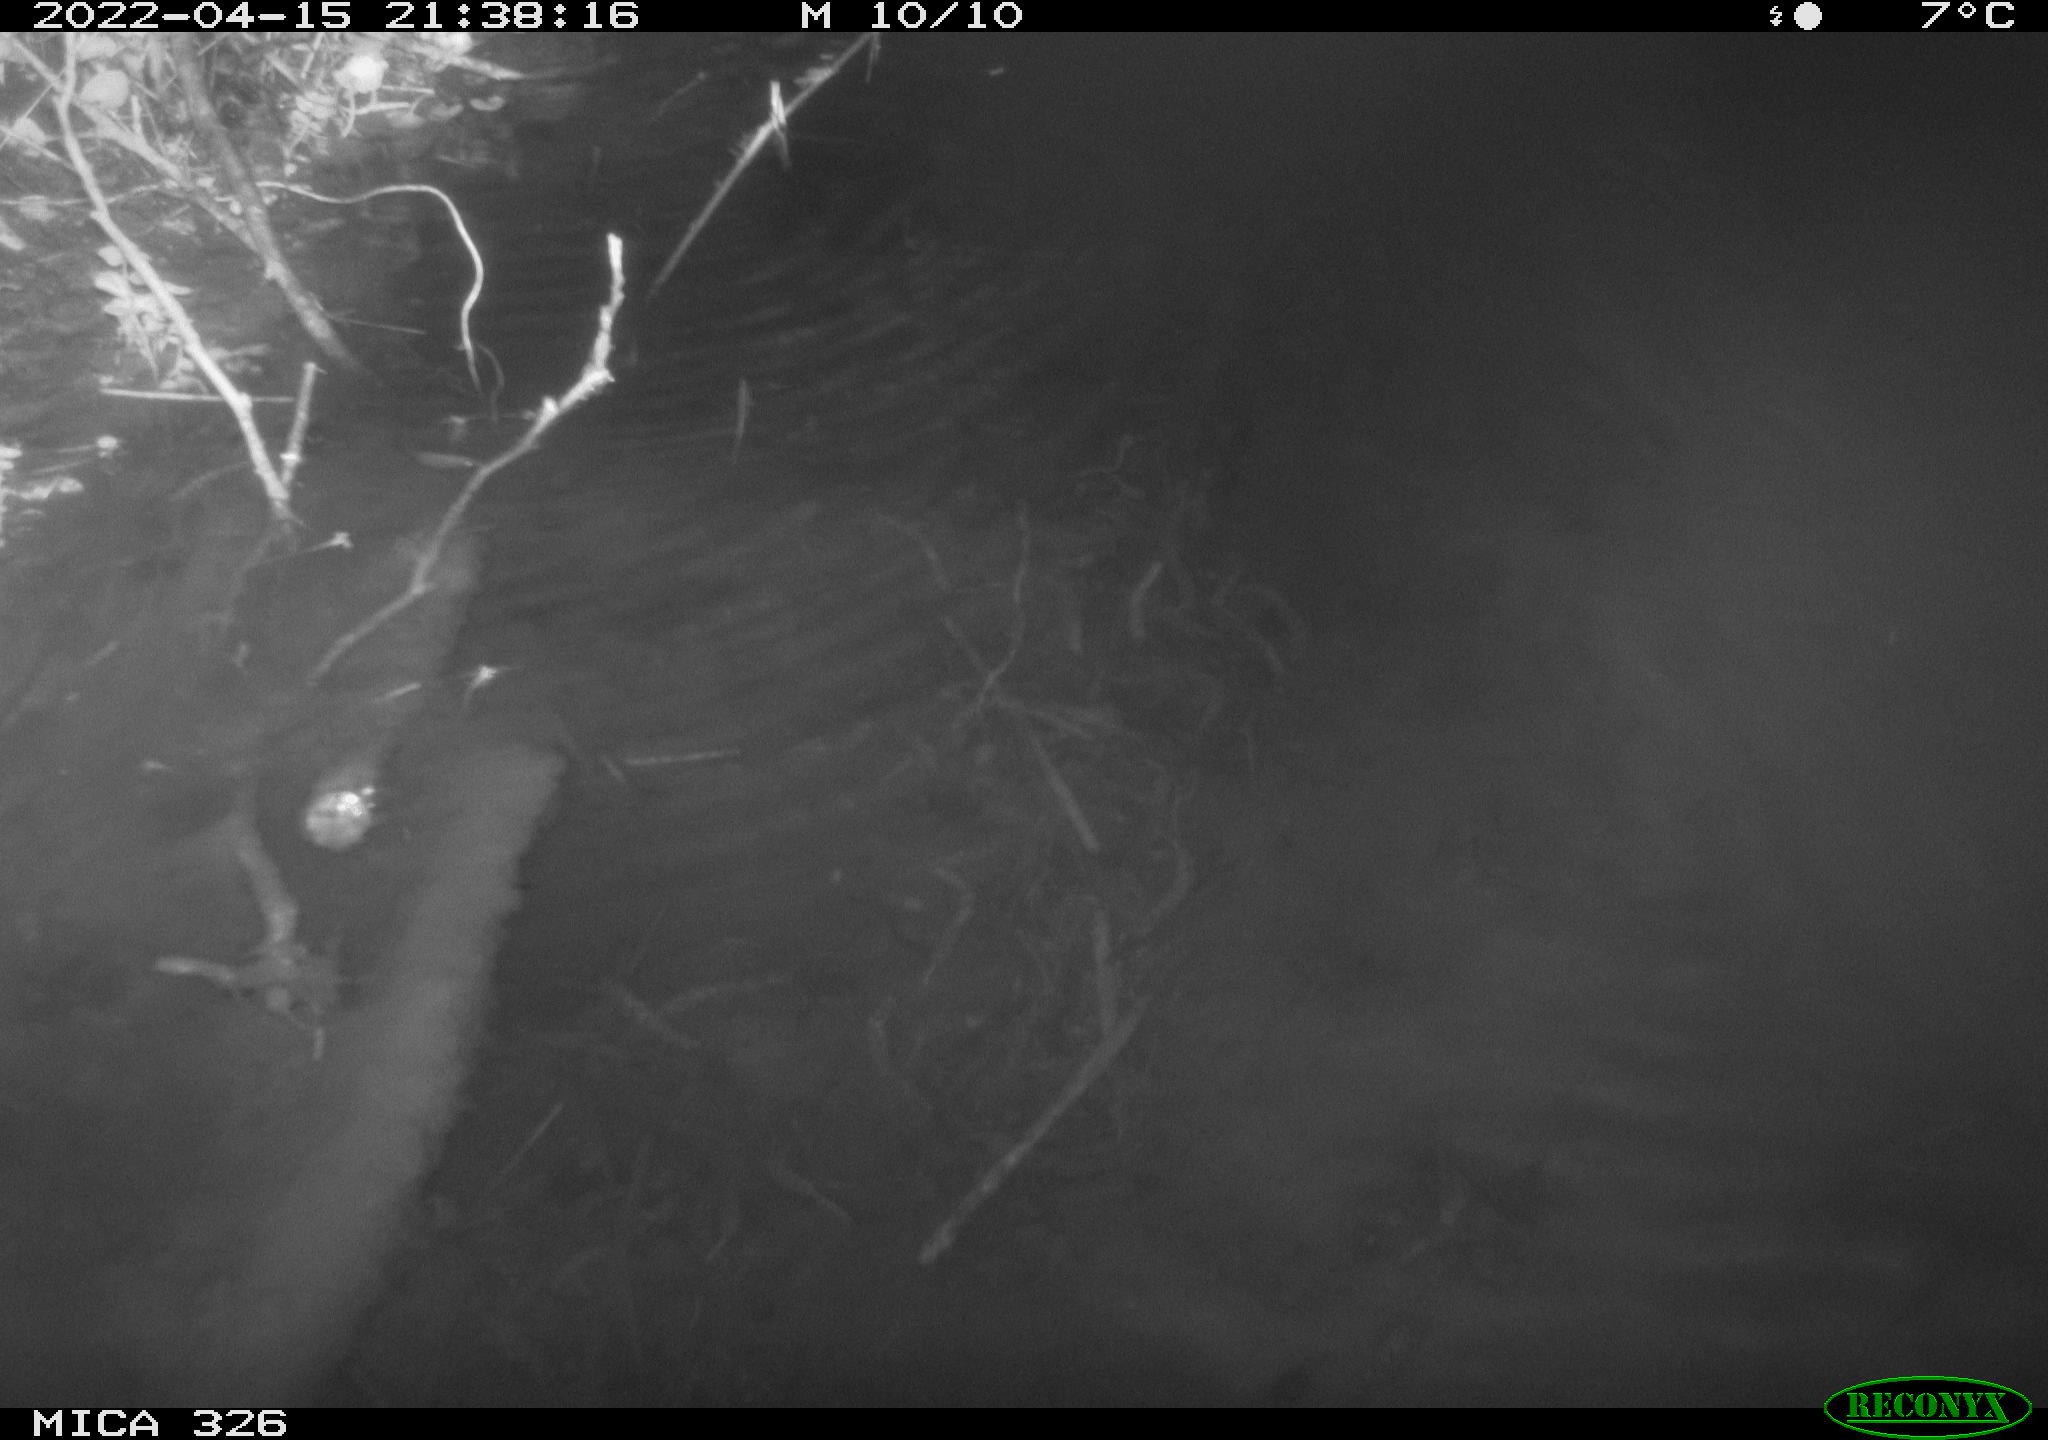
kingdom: Animalia
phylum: Chordata
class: Mammalia
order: Rodentia
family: Muridae
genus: Rattus
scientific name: Rattus norvegicus
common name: Brown rat
